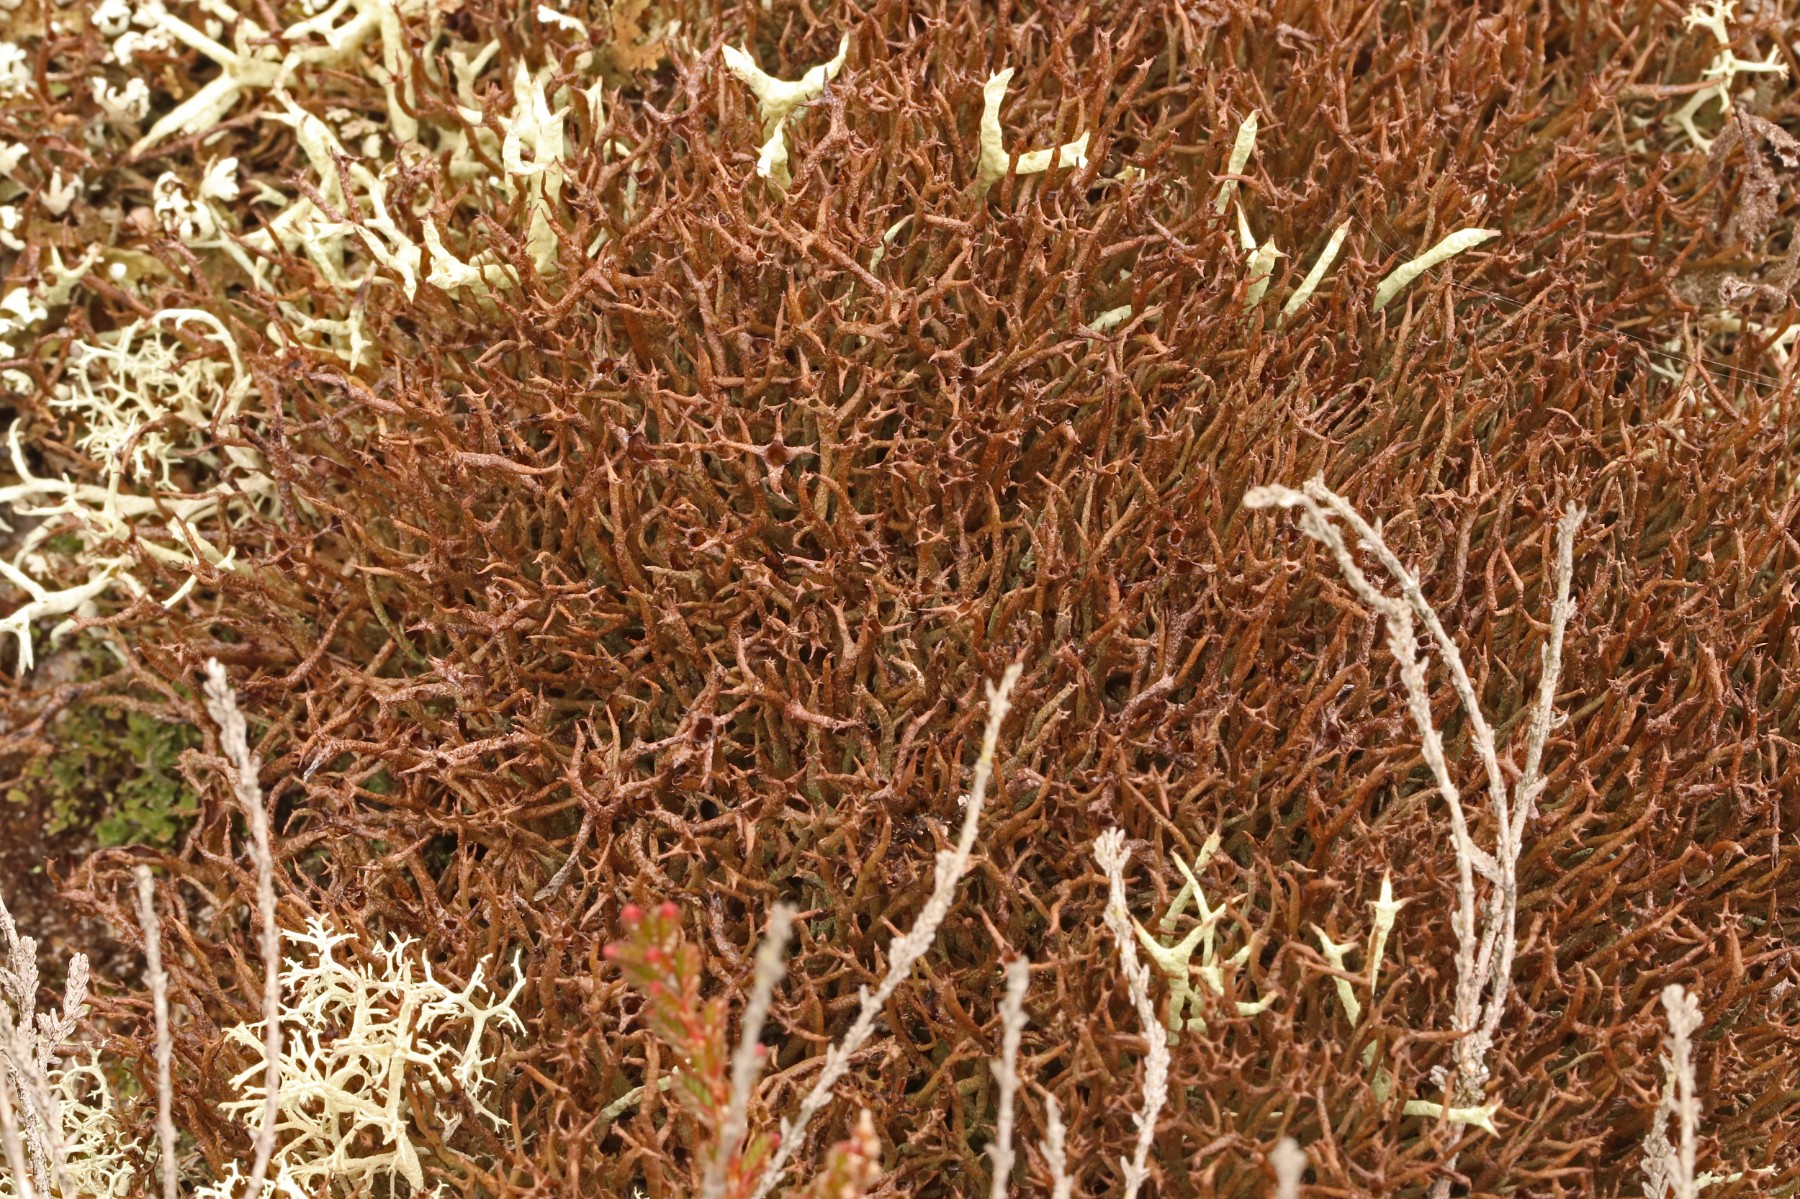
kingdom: Fungi
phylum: Ascomycota
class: Lecanoromycetes
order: Lecanorales
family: Cladoniaceae
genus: Cladonia
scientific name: Cladonia crispata
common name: takket bægerlav
